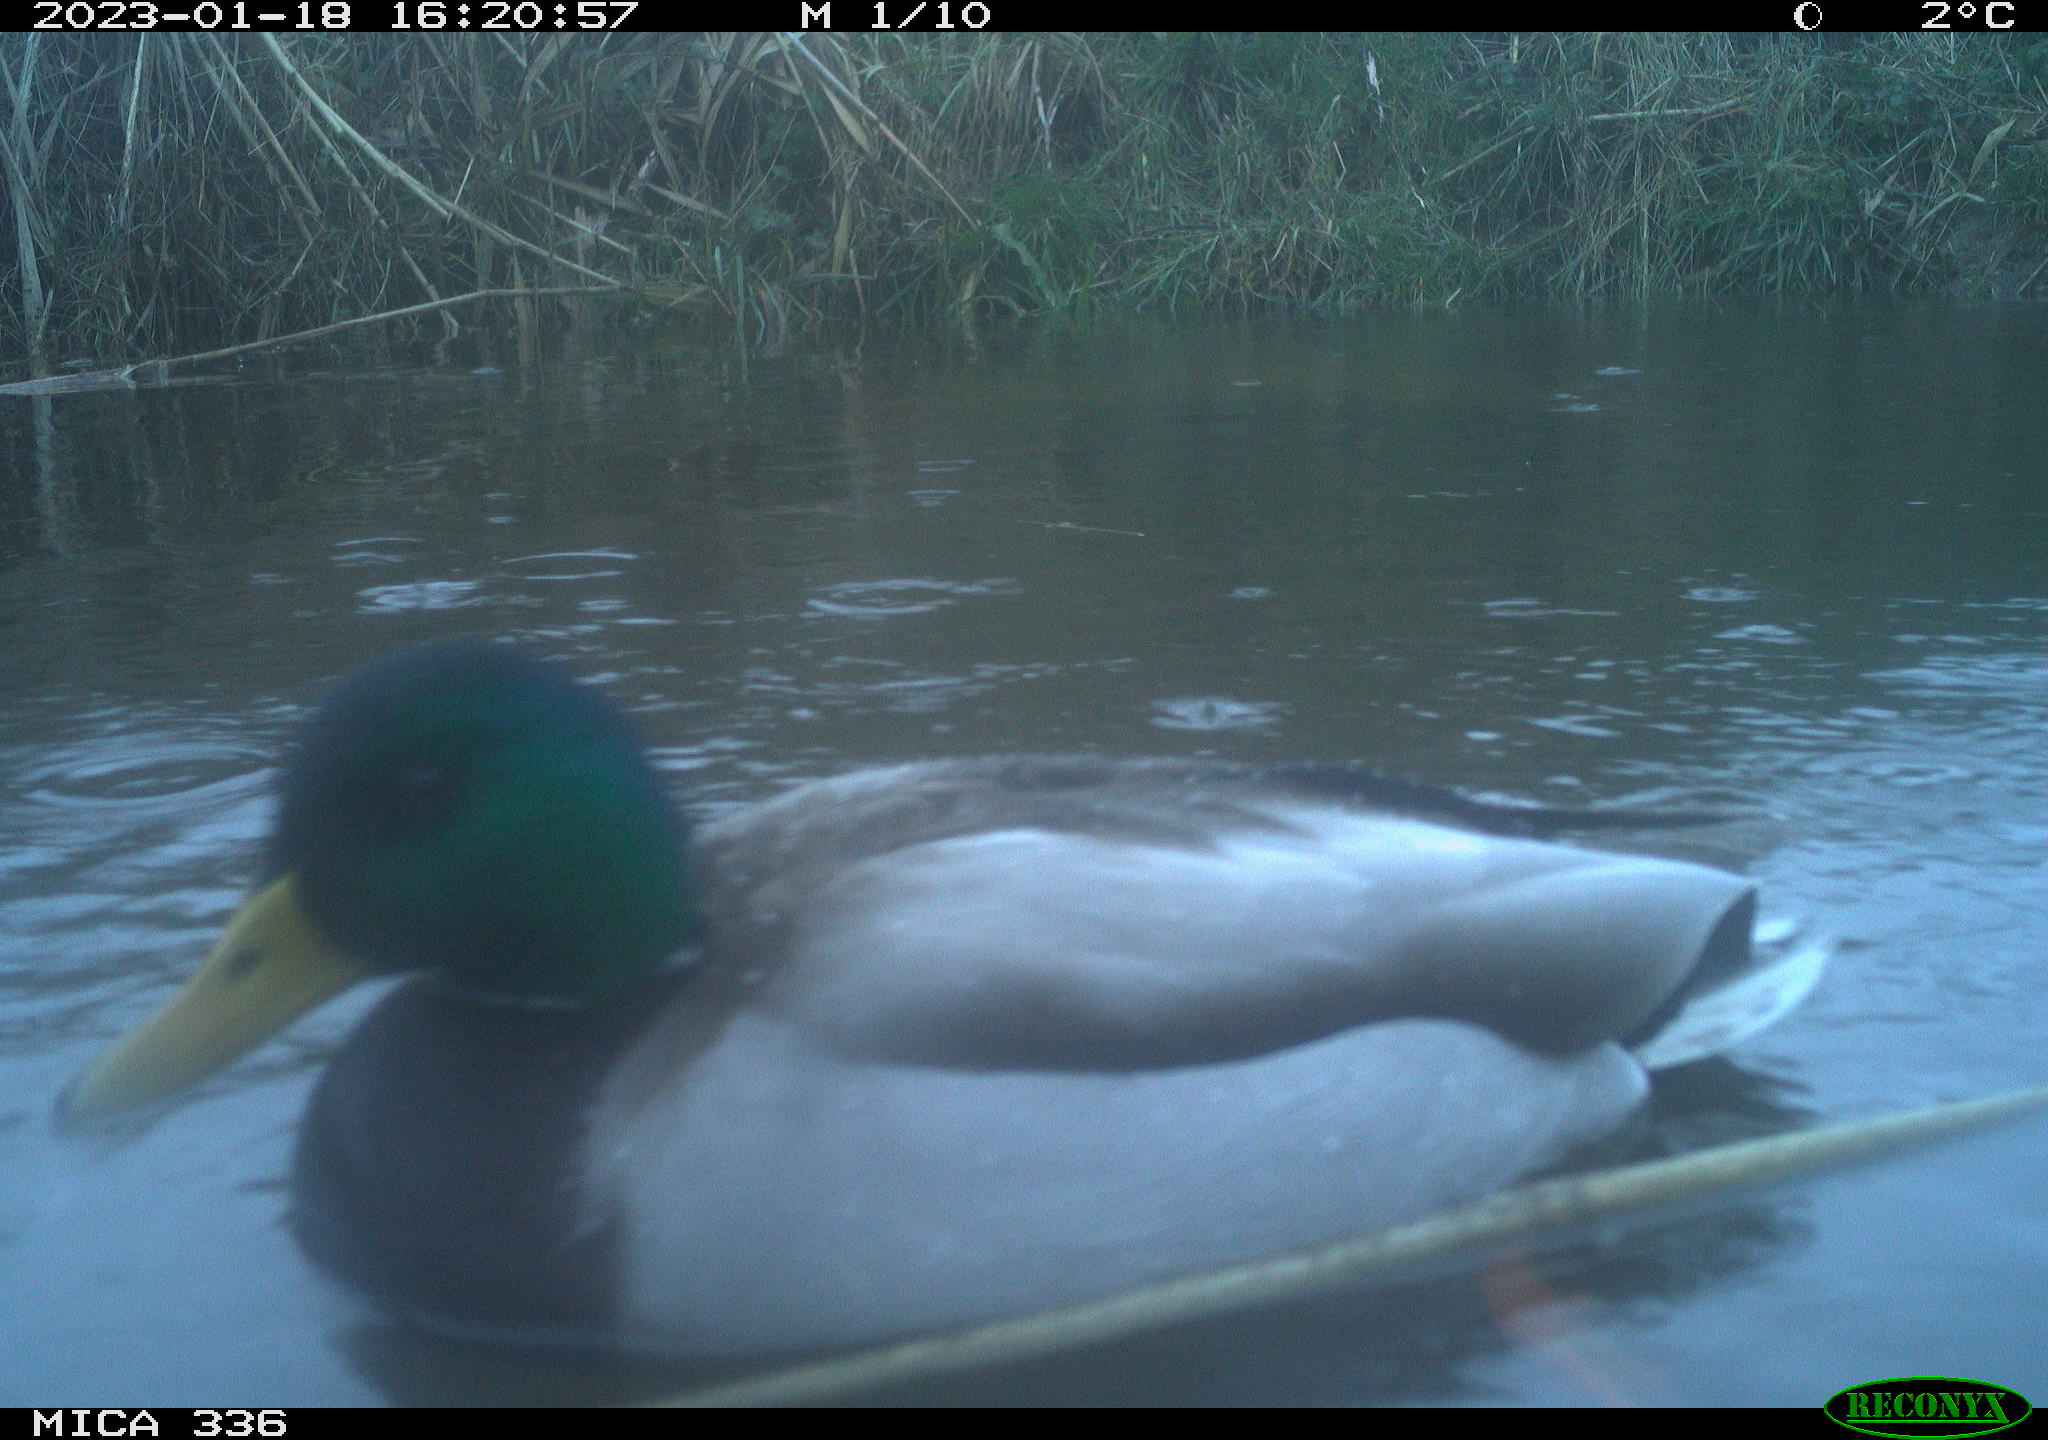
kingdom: Animalia
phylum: Chordata
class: Aves
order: Anseriformes
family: Anatidae
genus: Anas
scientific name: Anas
